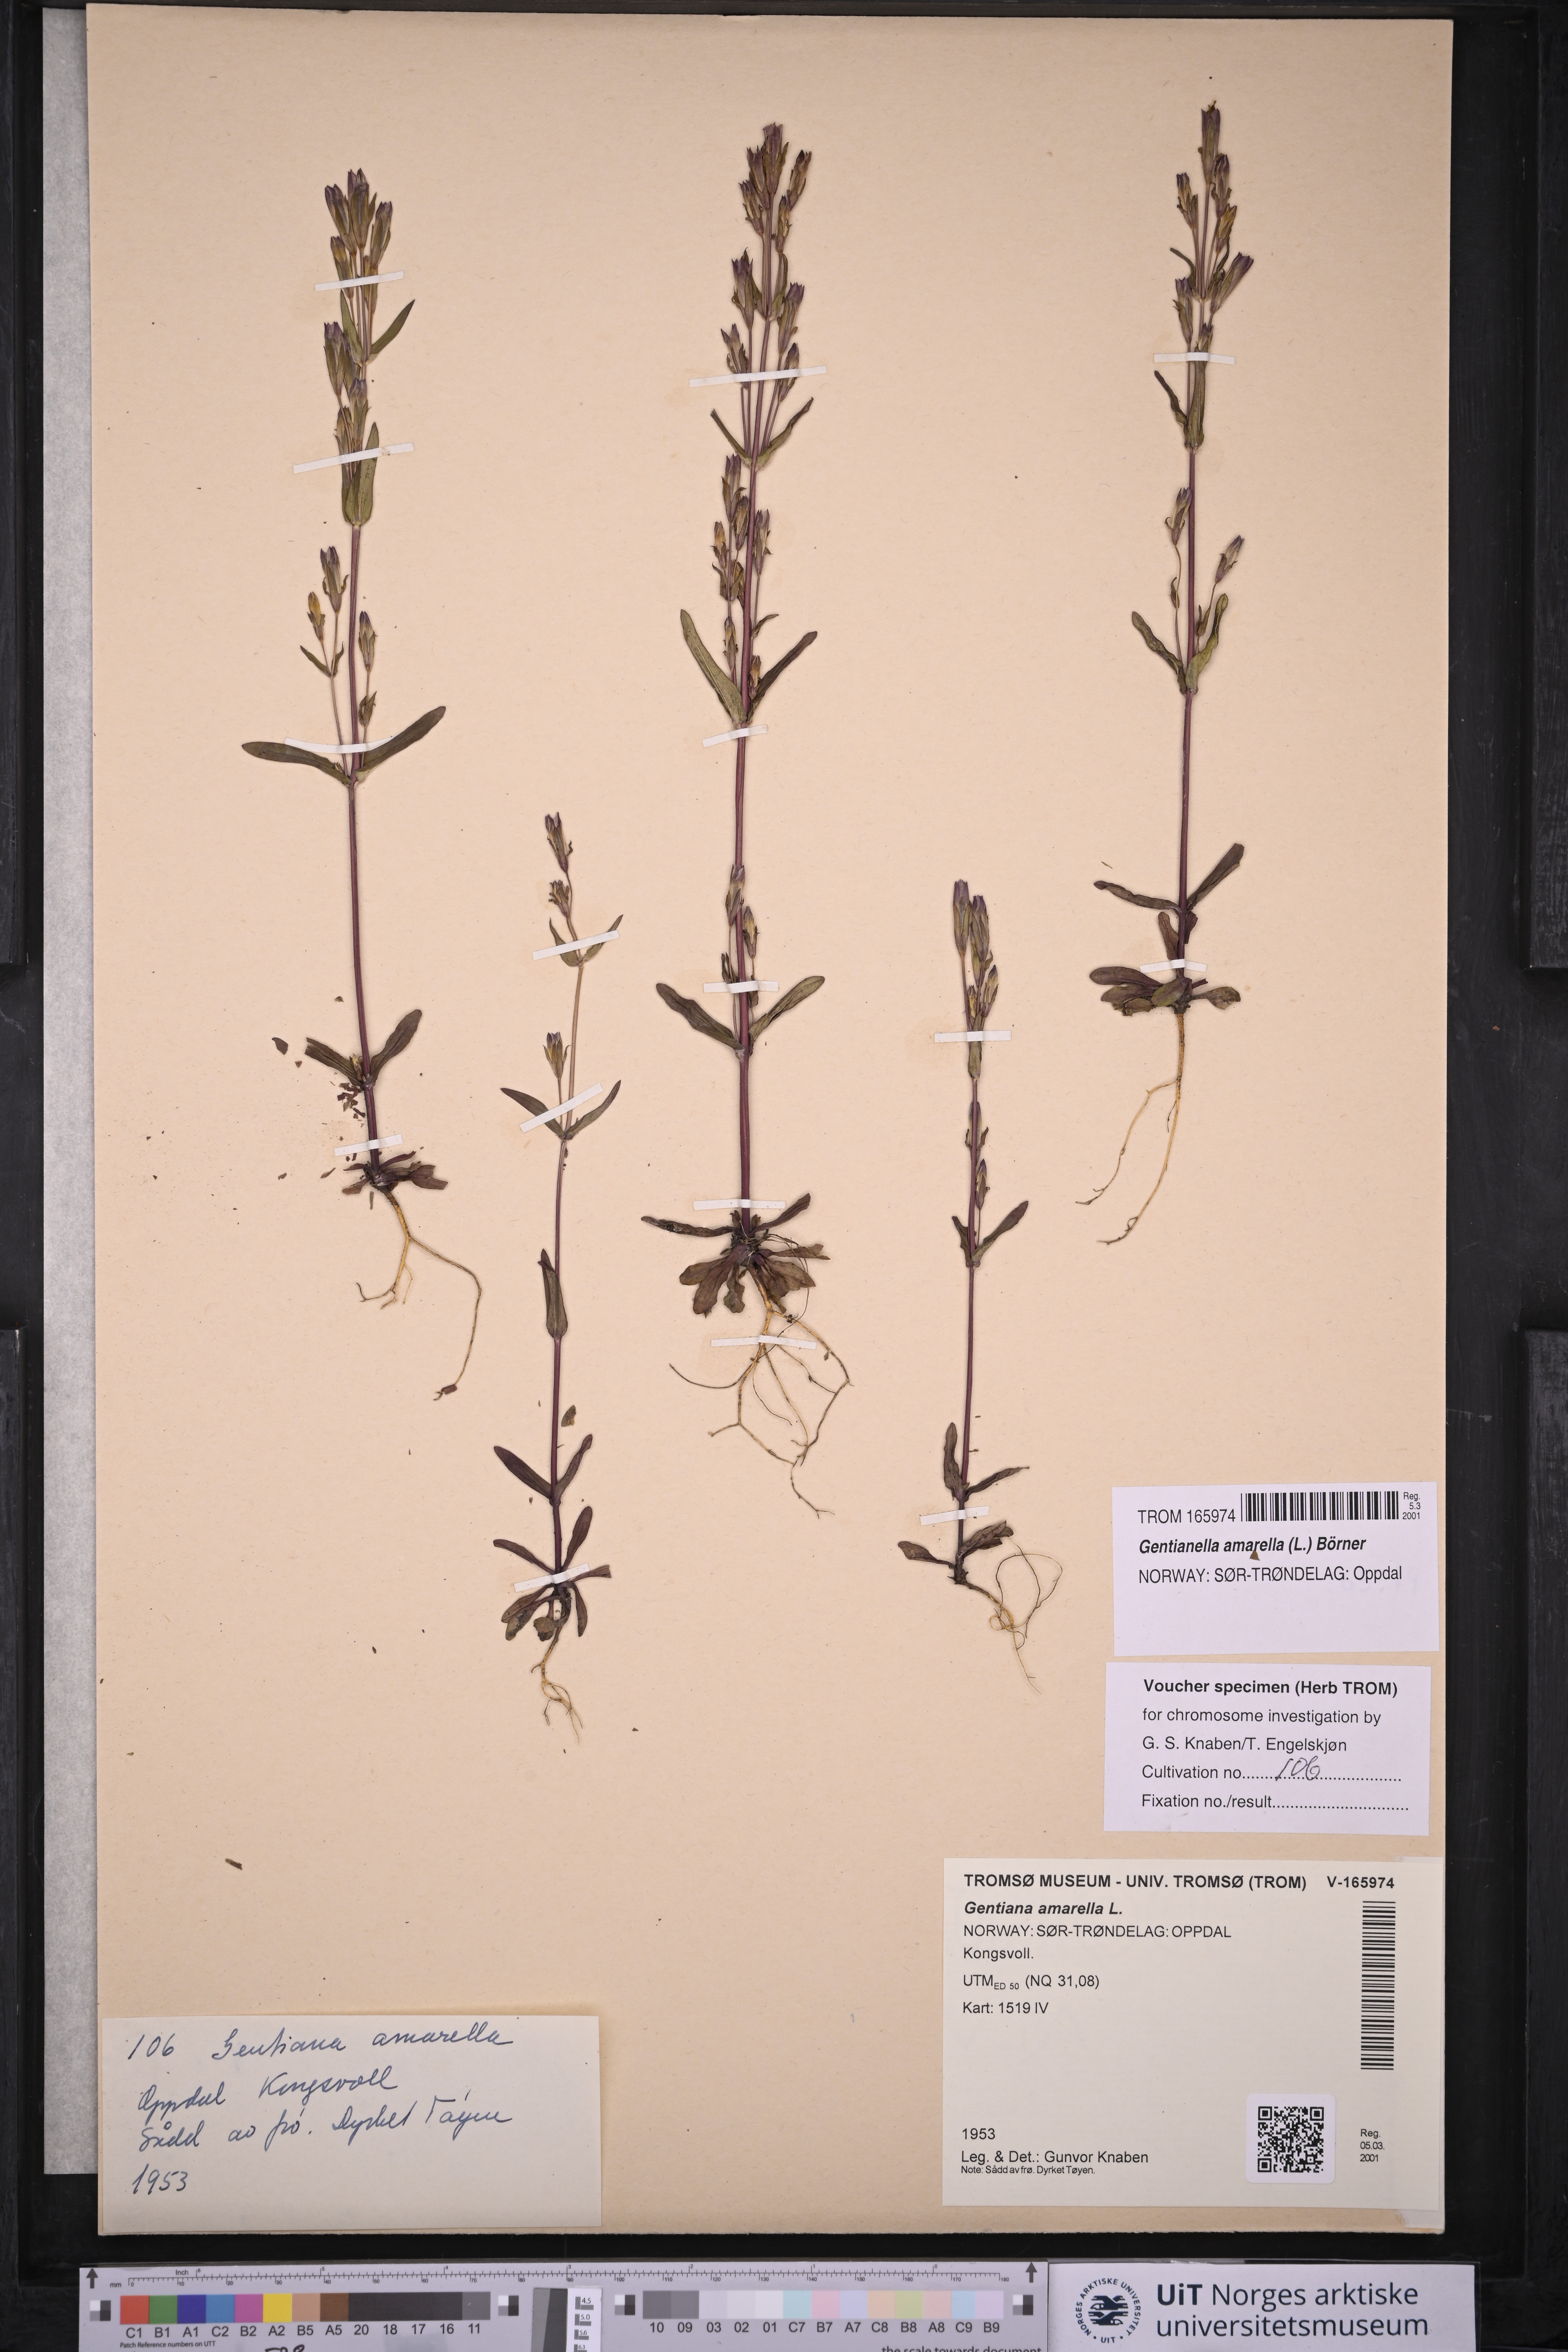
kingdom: Plantae
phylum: Tracheophyta
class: Magnoliopsida
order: Gentianales
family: Gentianaceae
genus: Gentianella
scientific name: Gentianella amarella
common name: Autumn gentian
